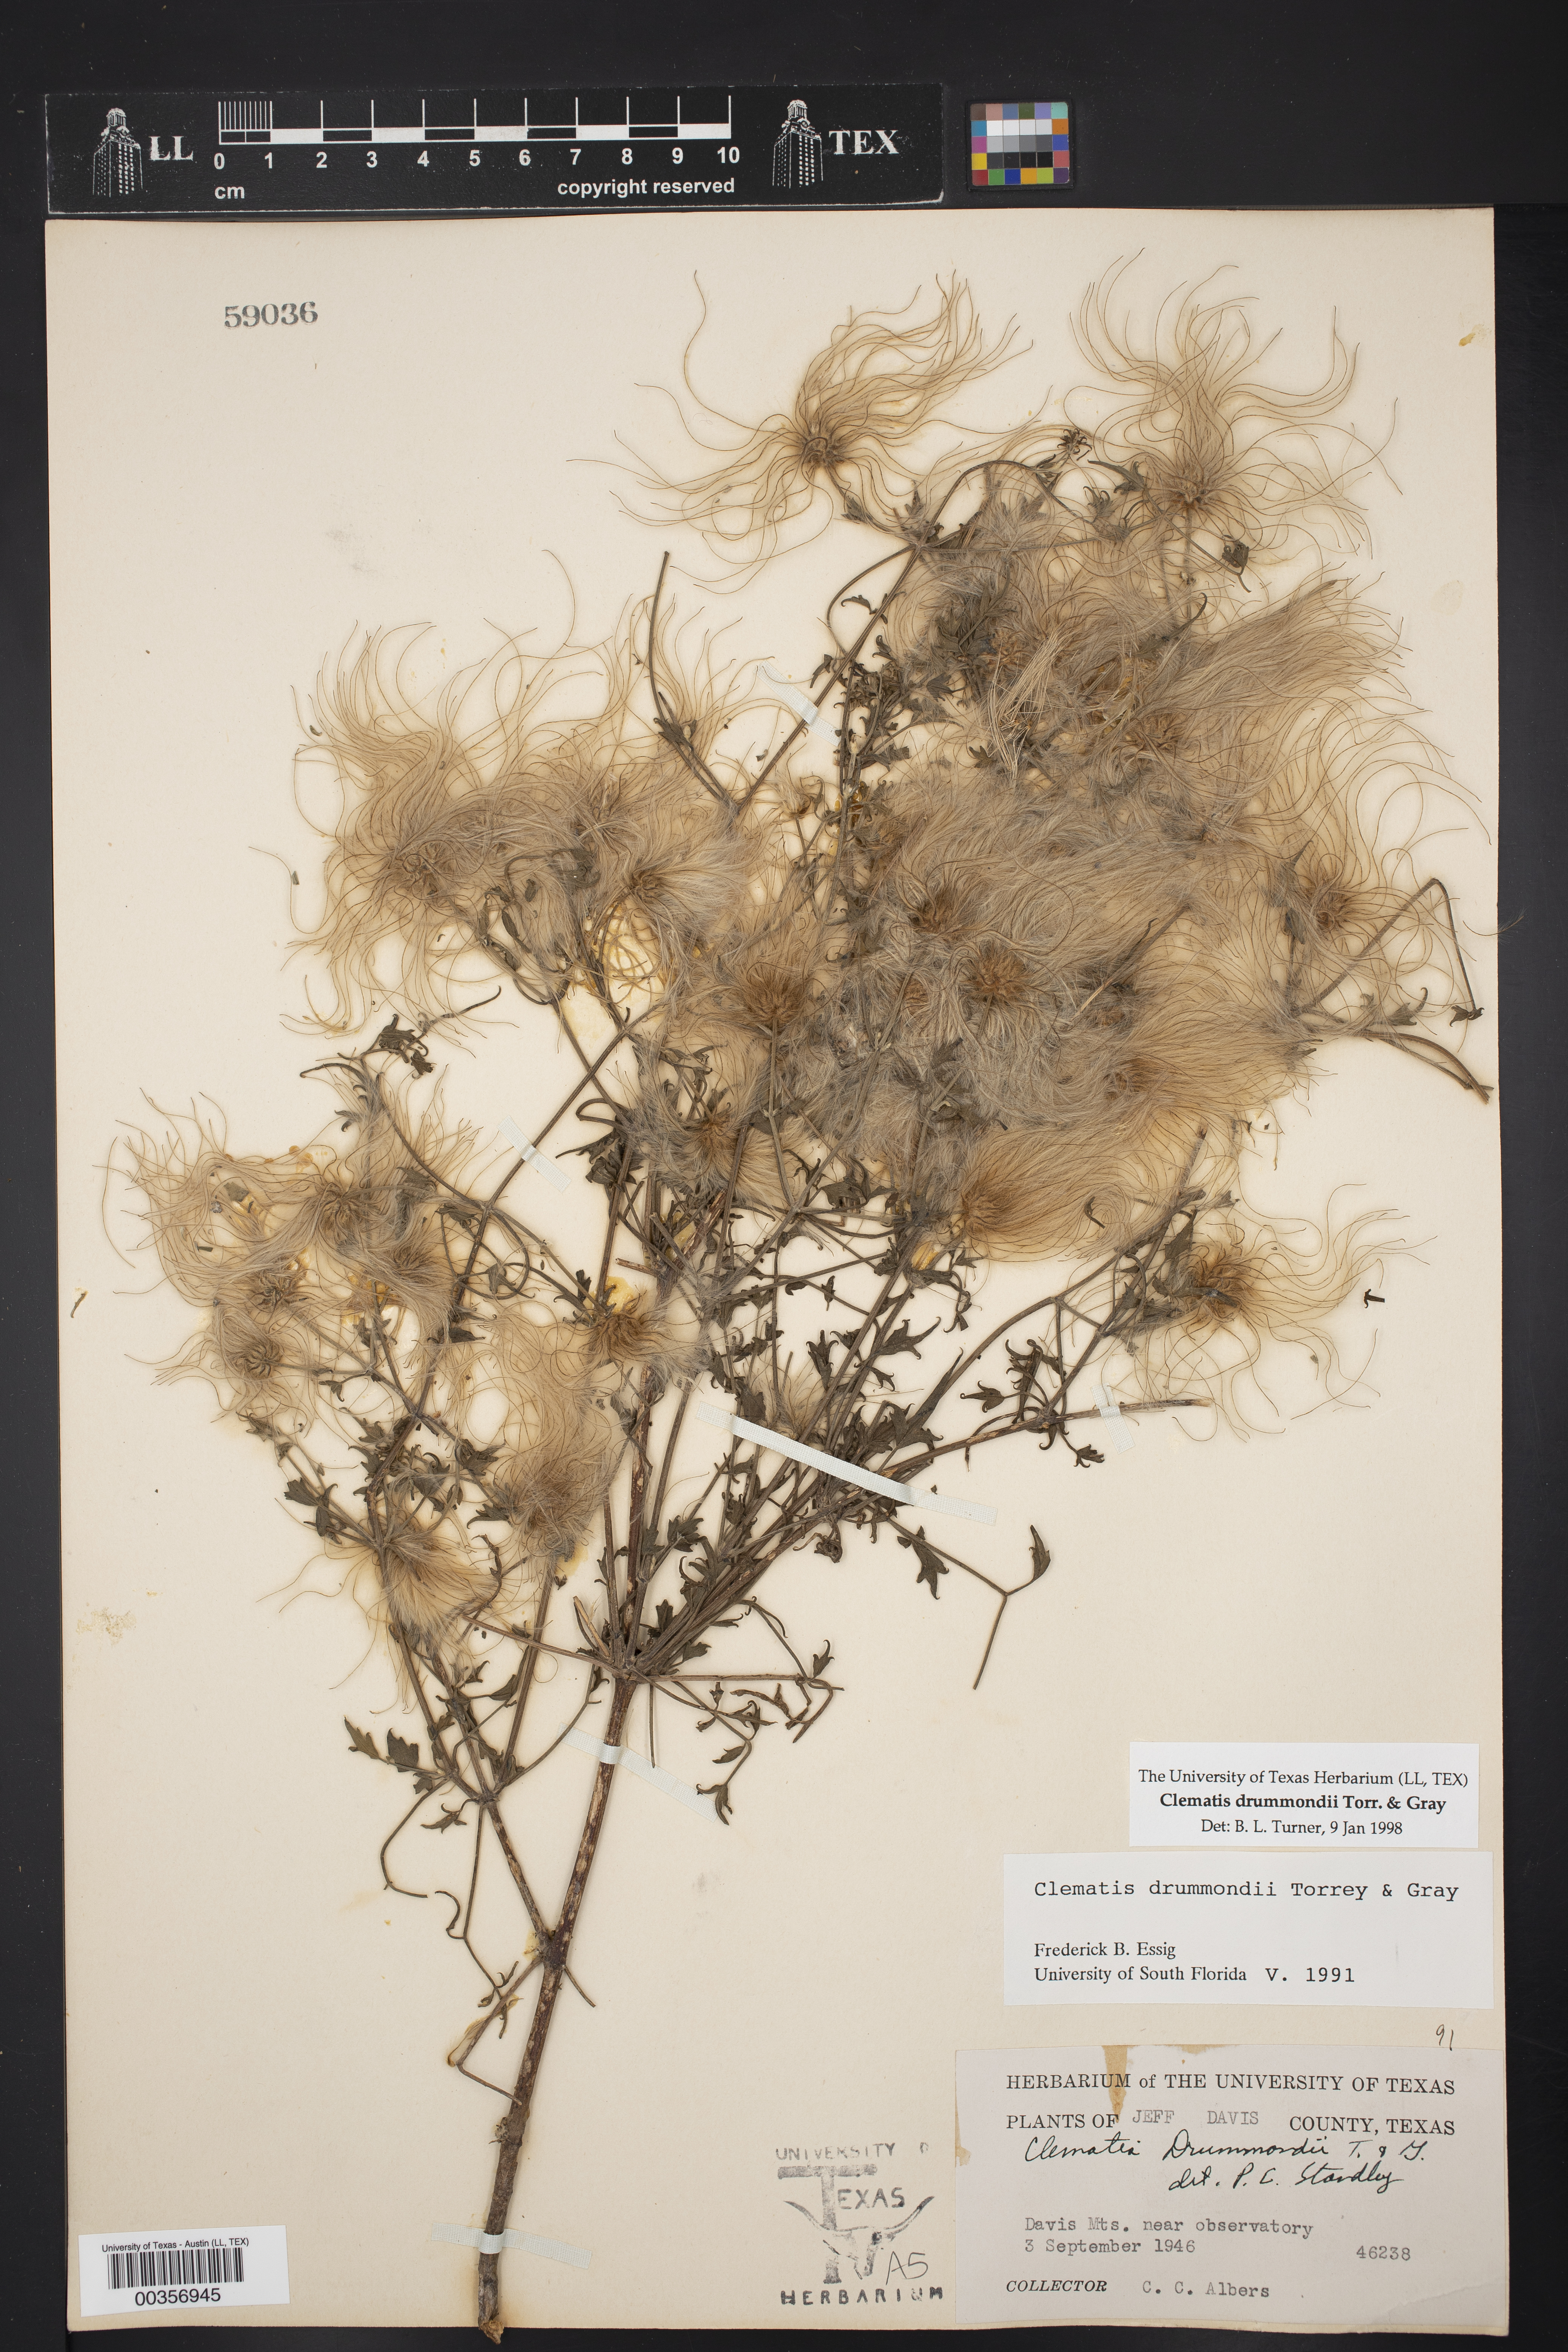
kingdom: Plantae
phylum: Tracheophyta
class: Magnoliopsida
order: Ranunculales
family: Ranunculaceae
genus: Clematis
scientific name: Clematis drummondii
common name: Texas virgin's bower
